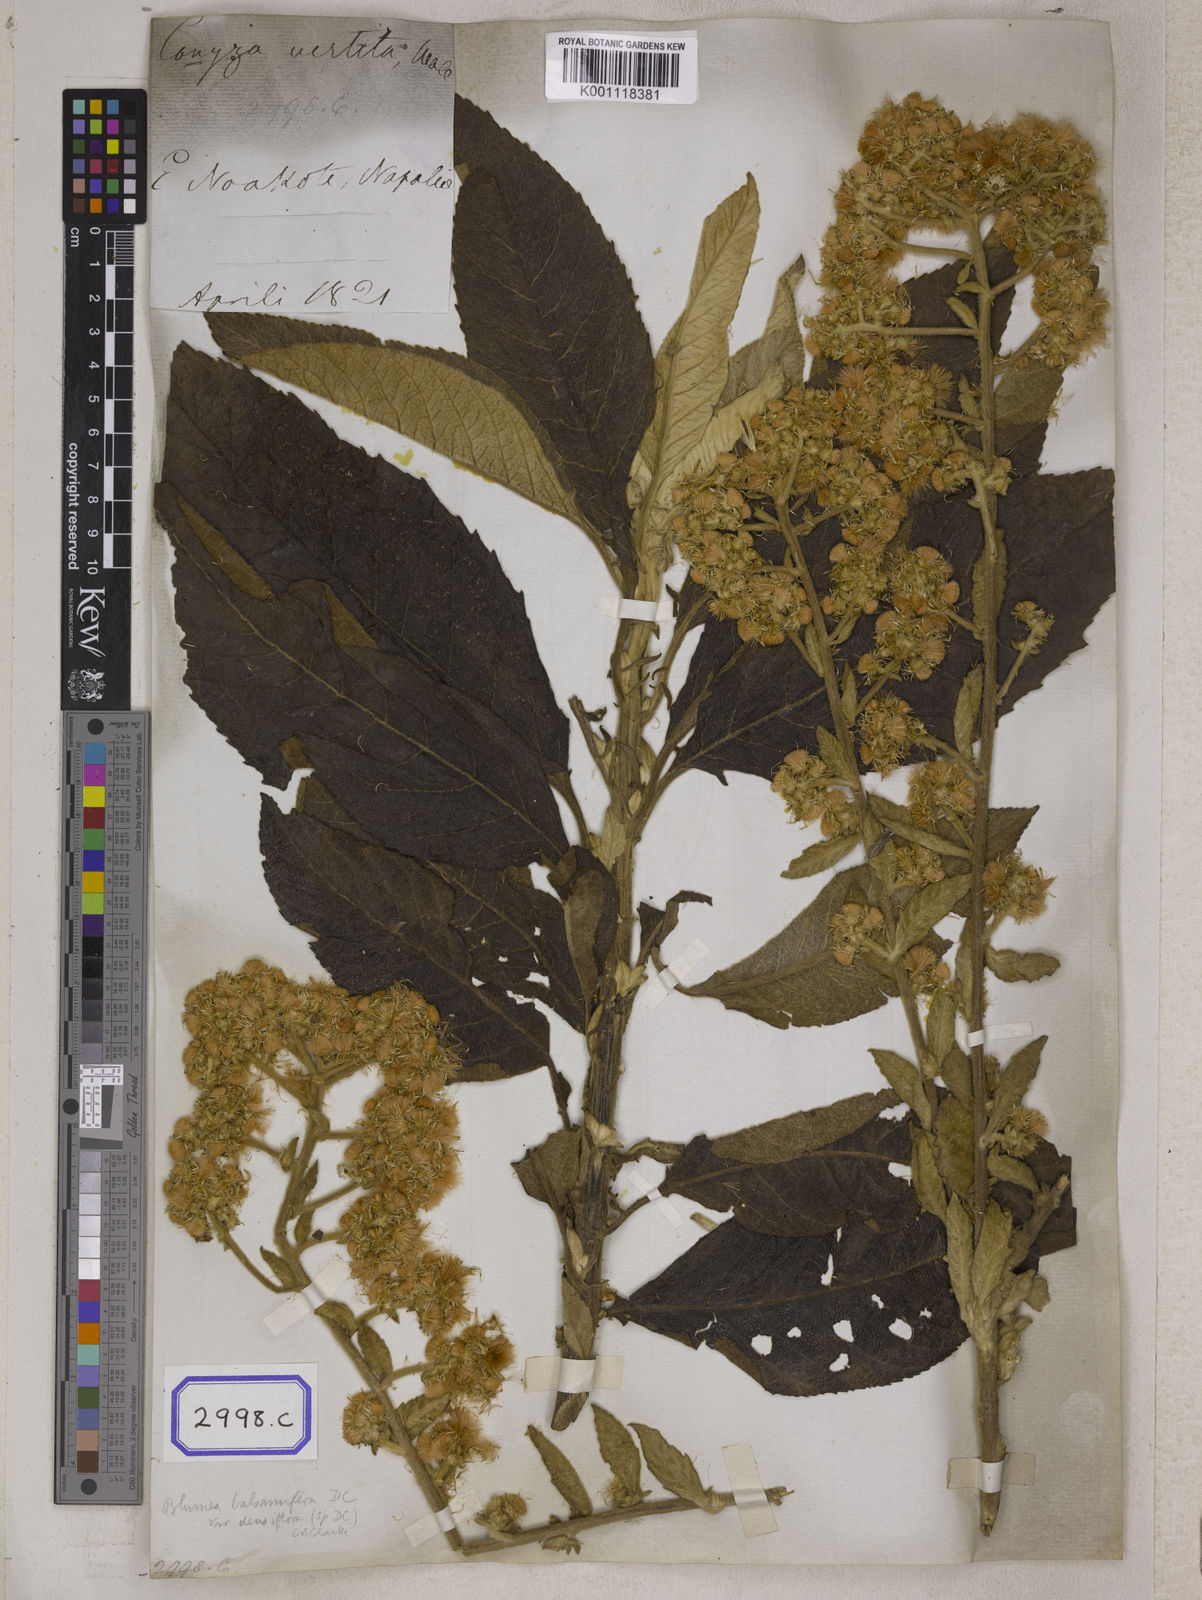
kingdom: Plantae
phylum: Tracheophyta
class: Magnoliopsida
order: Asterales
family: Asteraceae
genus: Blumea
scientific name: Blumea balsamifera
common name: Ngai camphor
